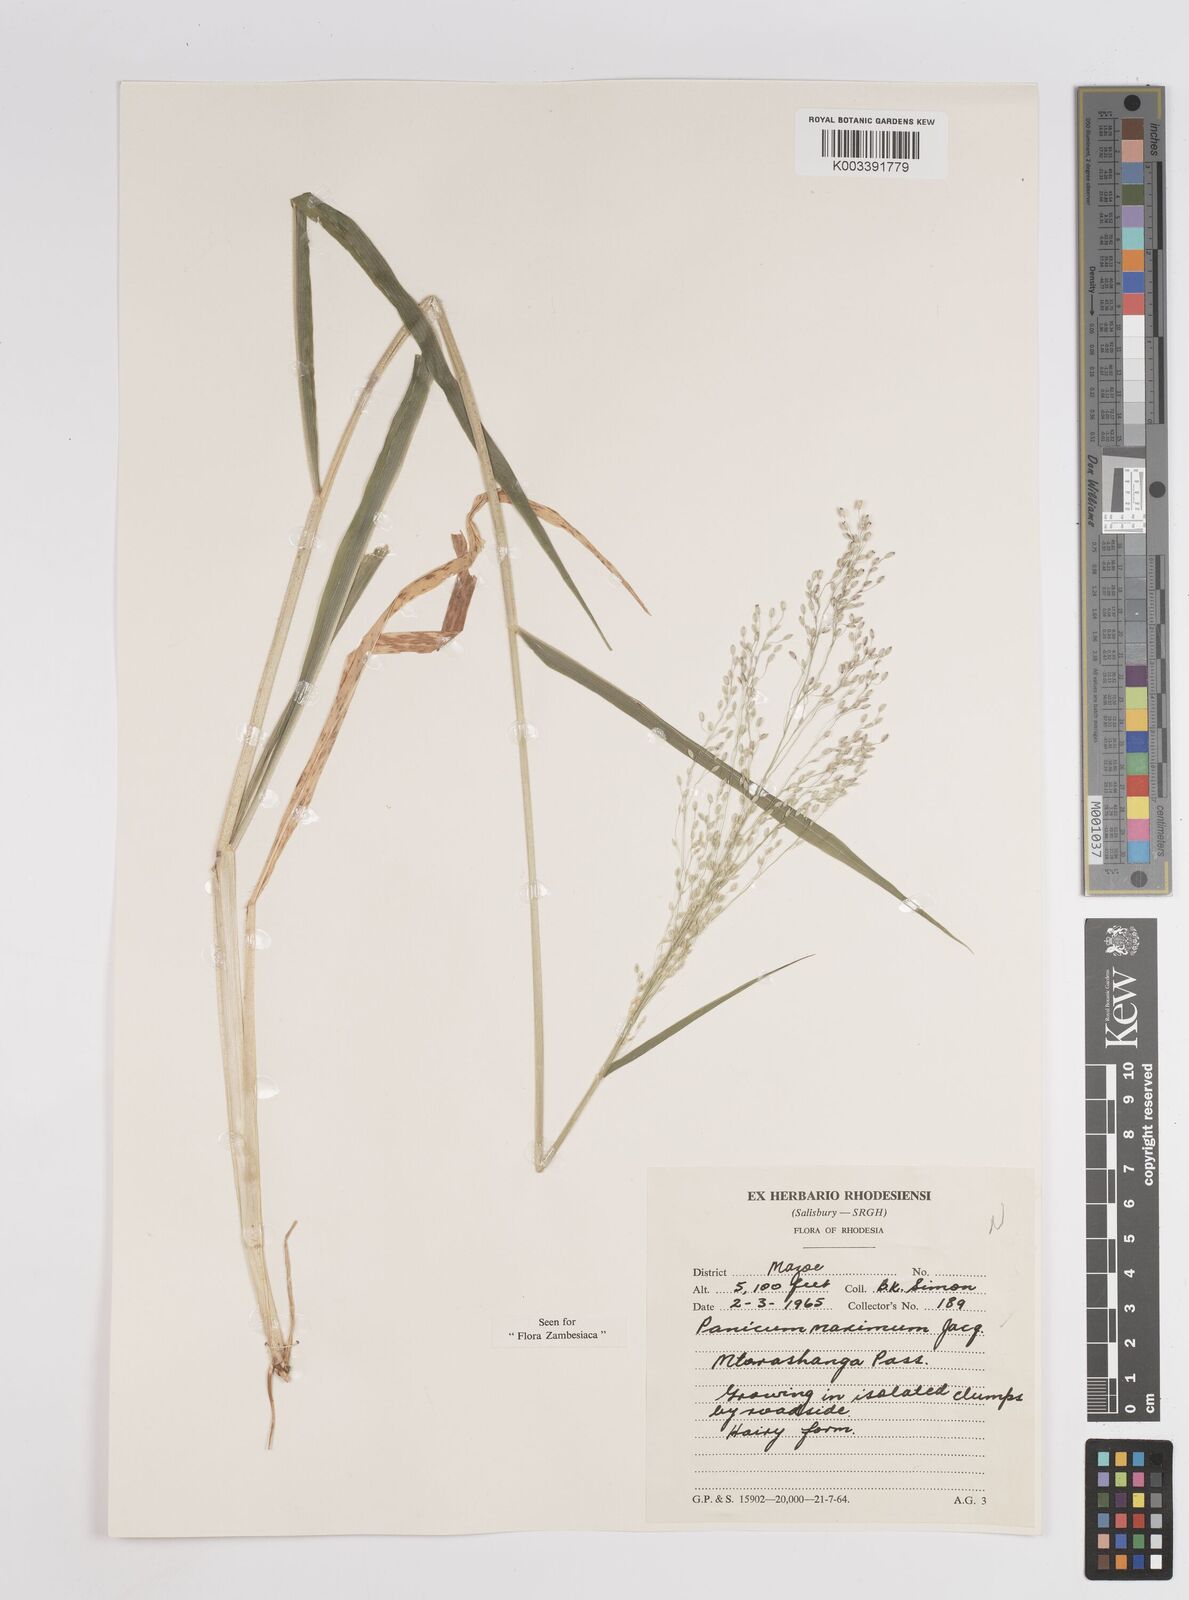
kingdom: Plantae
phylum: Tracheophyta
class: Liliopsida
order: Poales
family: Poaceae
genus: Megathyrsus
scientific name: Megathyrsus maximus
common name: Guineagrass
